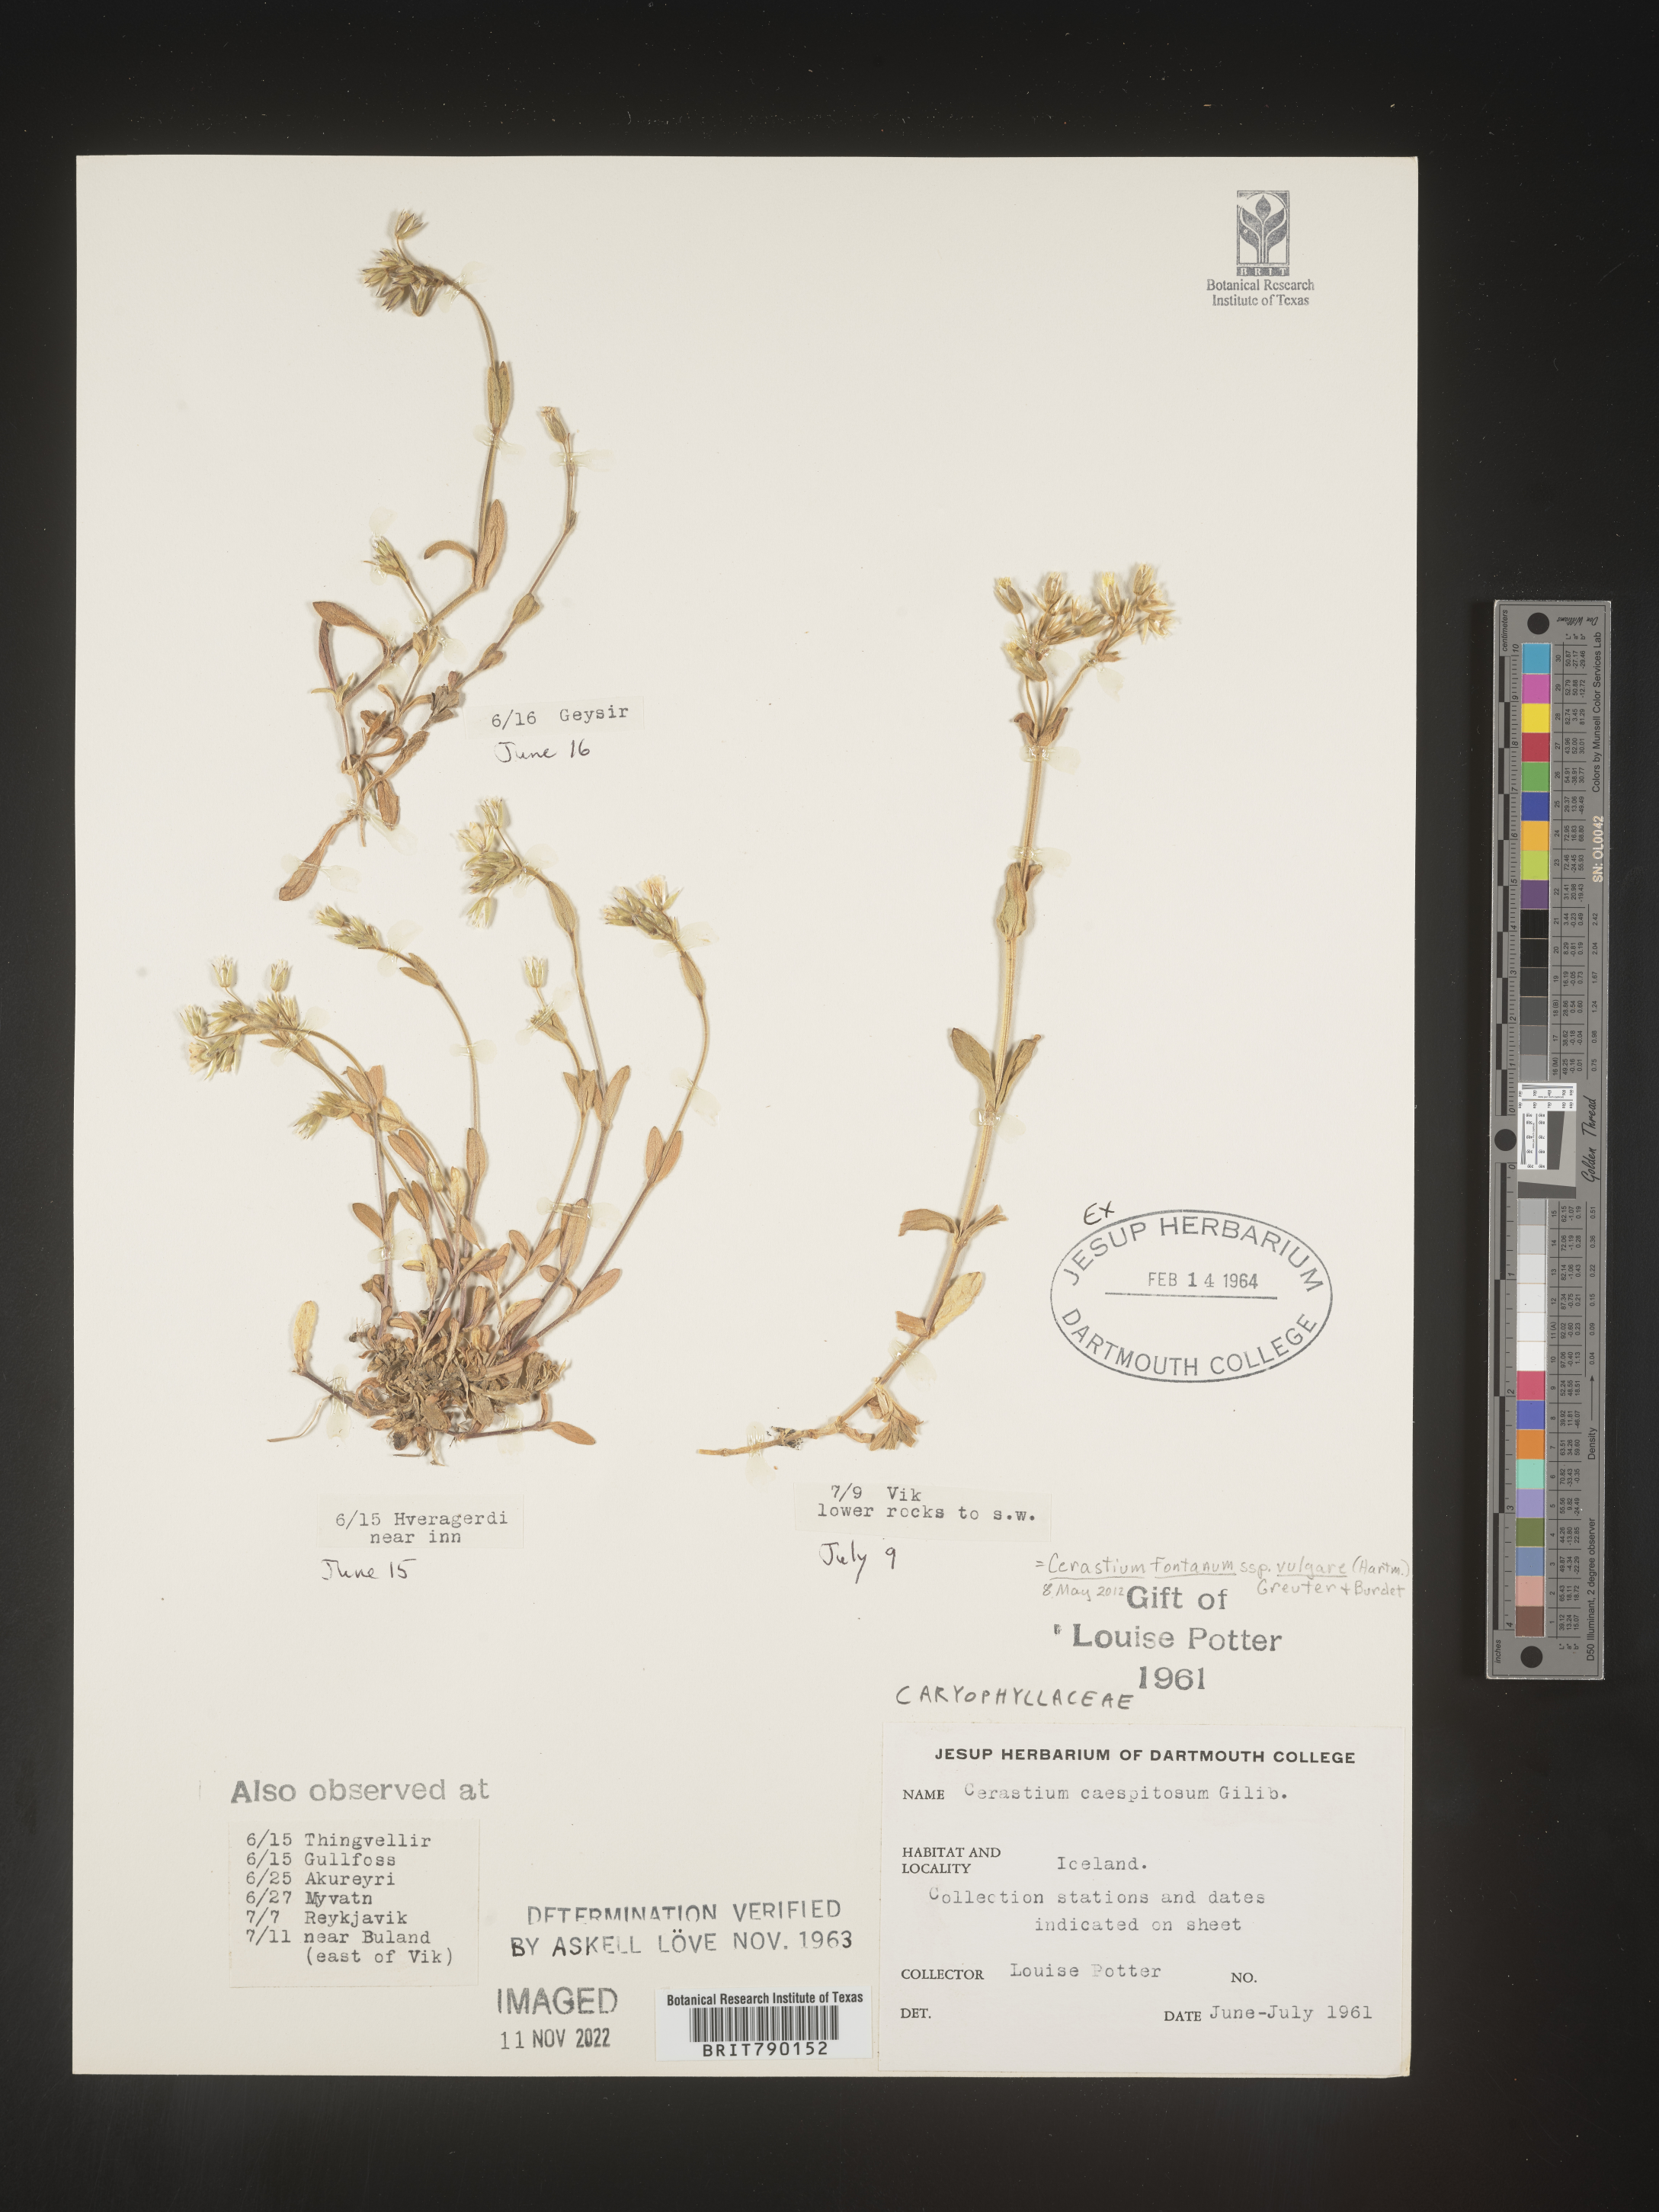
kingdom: Plantae
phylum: Tracheophyta
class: Magnoliopsida
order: Caryophyllales
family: Caryophyllaceae
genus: Cerastium
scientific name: Cerastium
